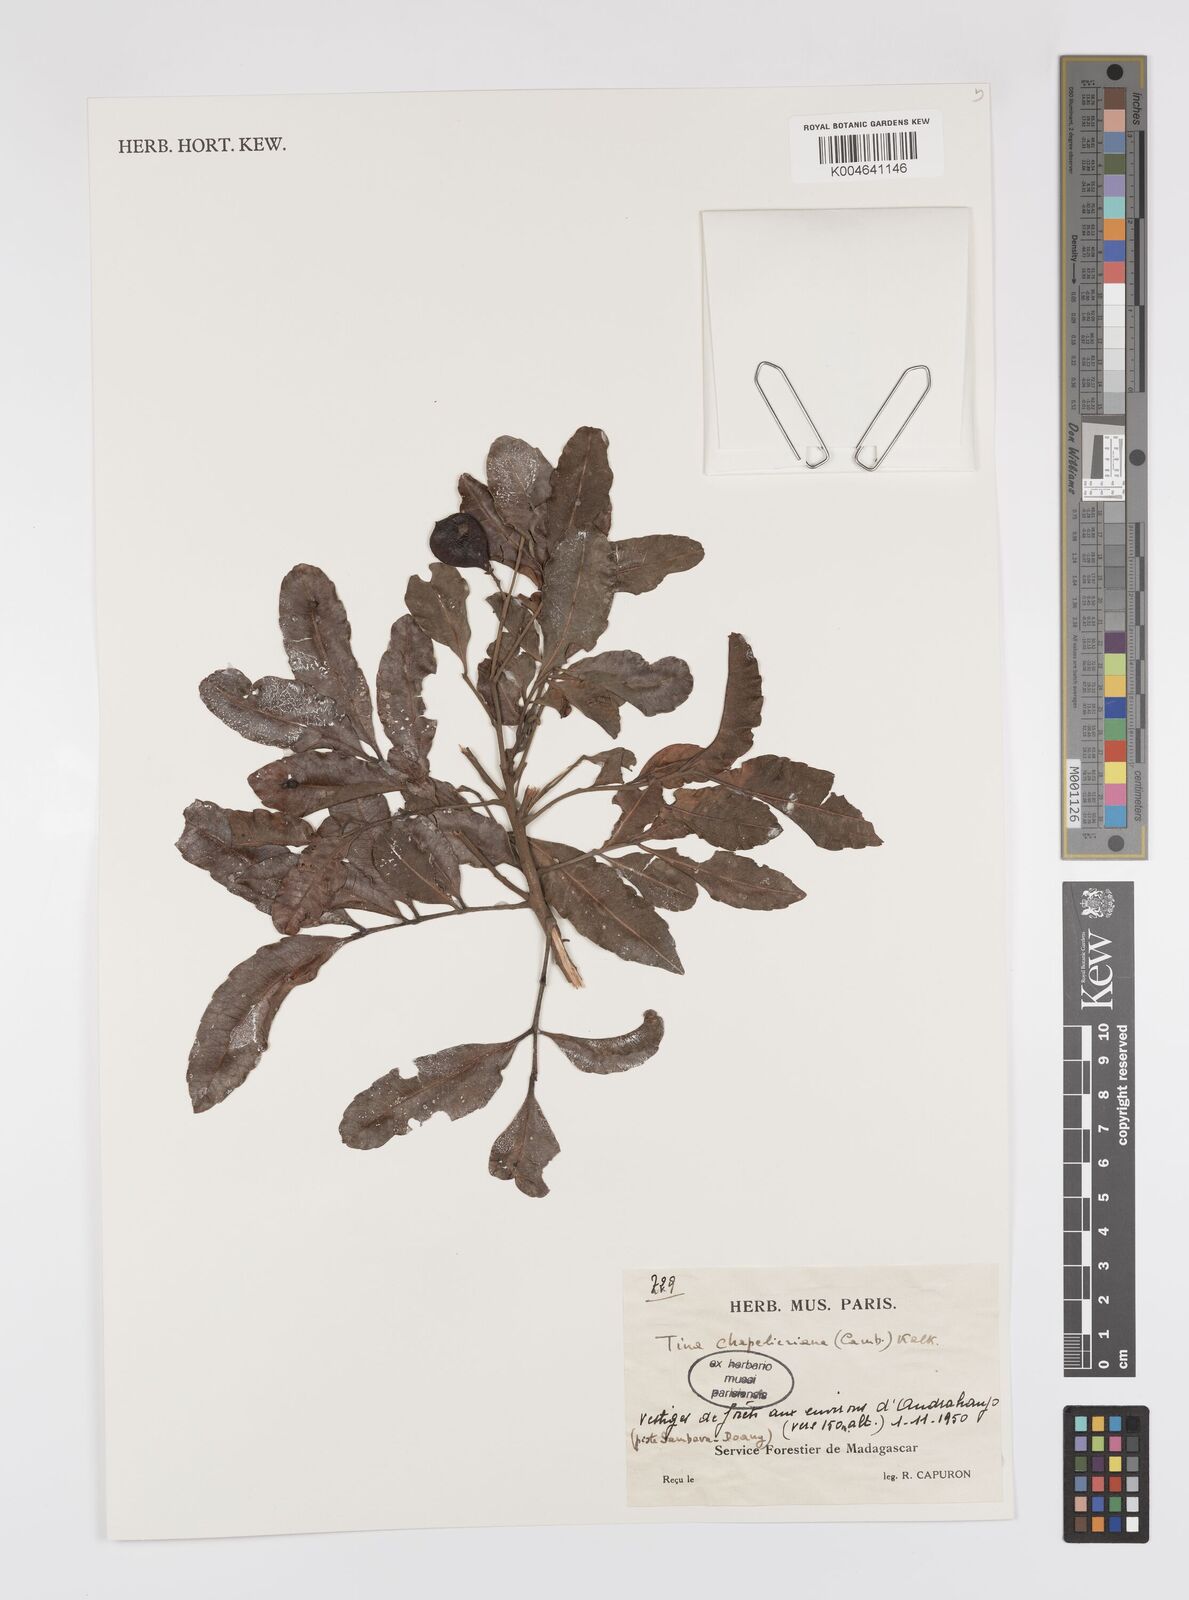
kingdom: Plantae
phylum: Tracheophyta
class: Magnoliopsida
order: Sapindales
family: Sapindaceae
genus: Tina
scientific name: Tina chapelieriana
